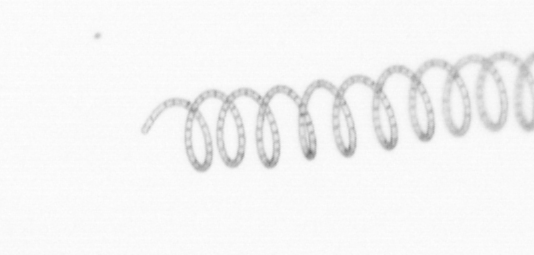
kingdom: Chromista
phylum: Ochrophyta
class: Bacillariophyceae
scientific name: Bacillariophyceae
